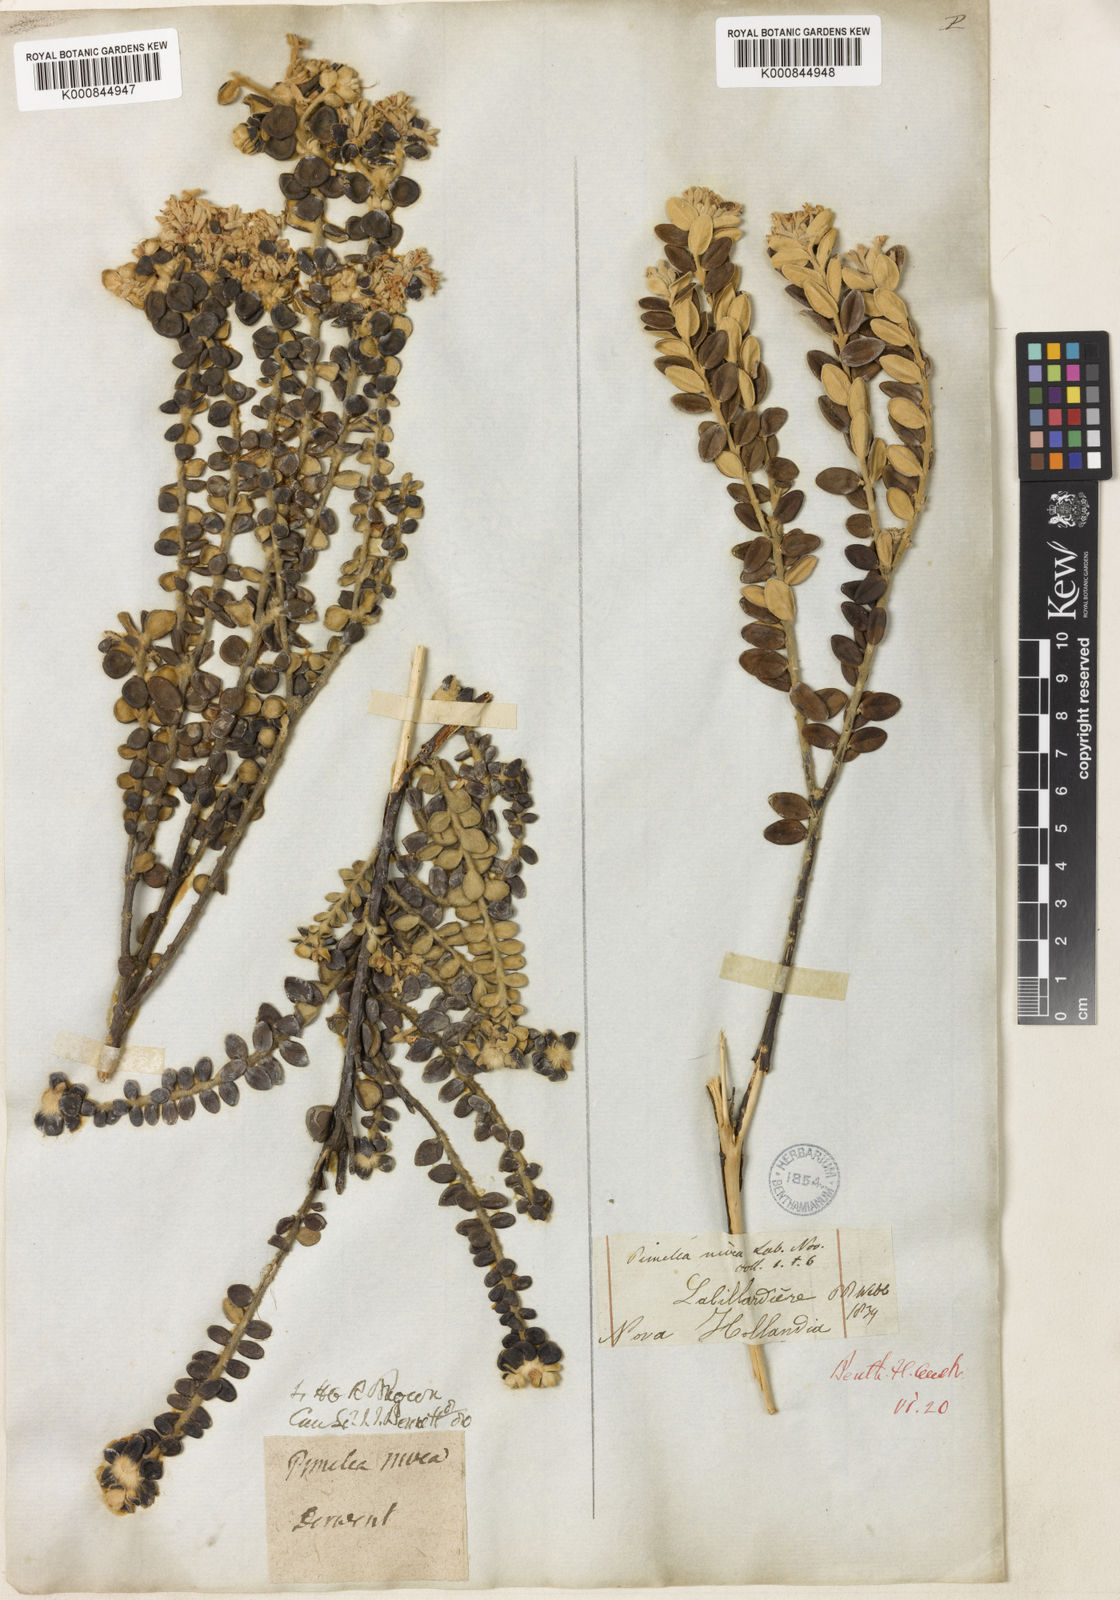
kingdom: Plantae
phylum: Tracheophyta
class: Magnoliopsida
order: Malvales
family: Thymelaeaceae
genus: Pimelea
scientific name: Pimelea nivea
